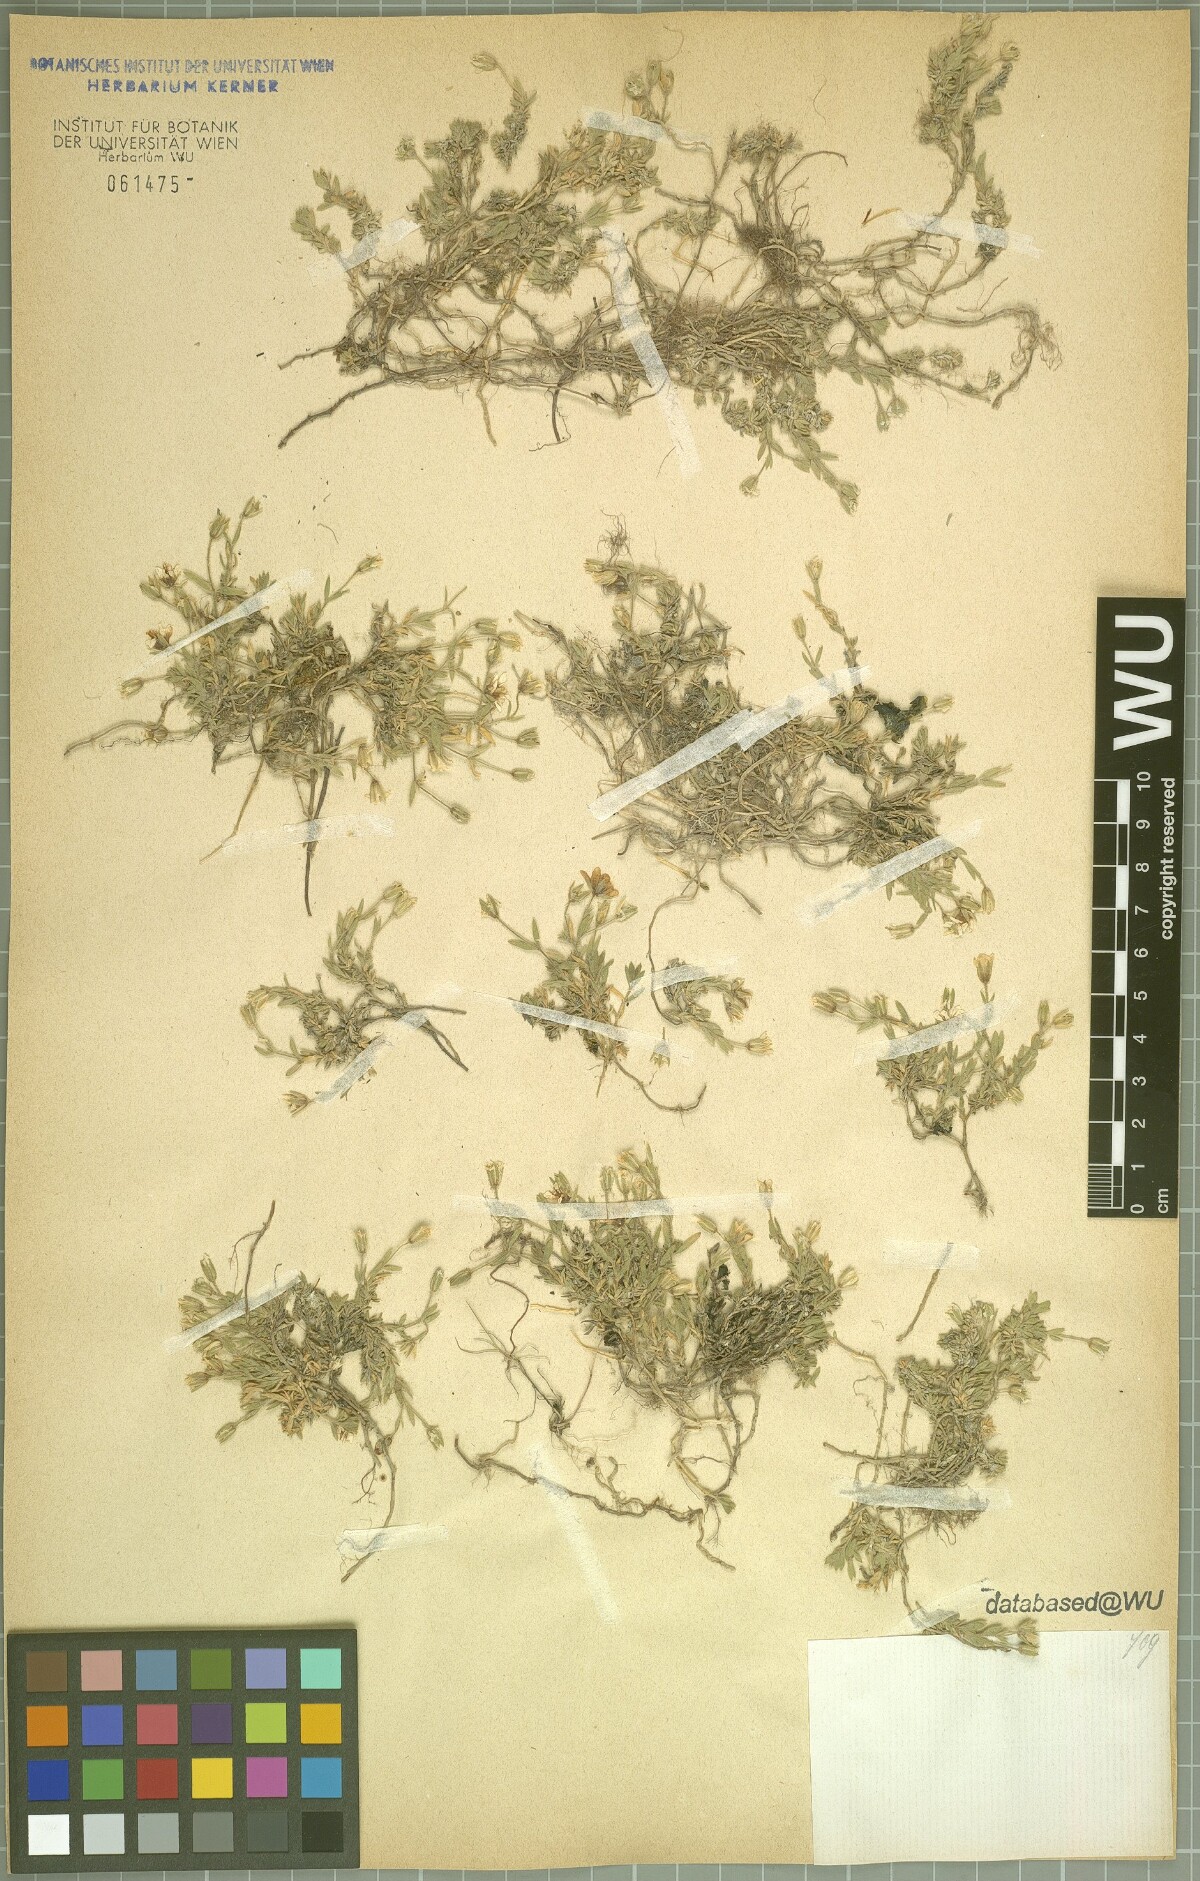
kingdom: Plantae
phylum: Tracheophyta
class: Magnoliopsida
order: Caryophyllales
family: Caryophyllaceae
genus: Arenaria
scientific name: Arenaria huteri
